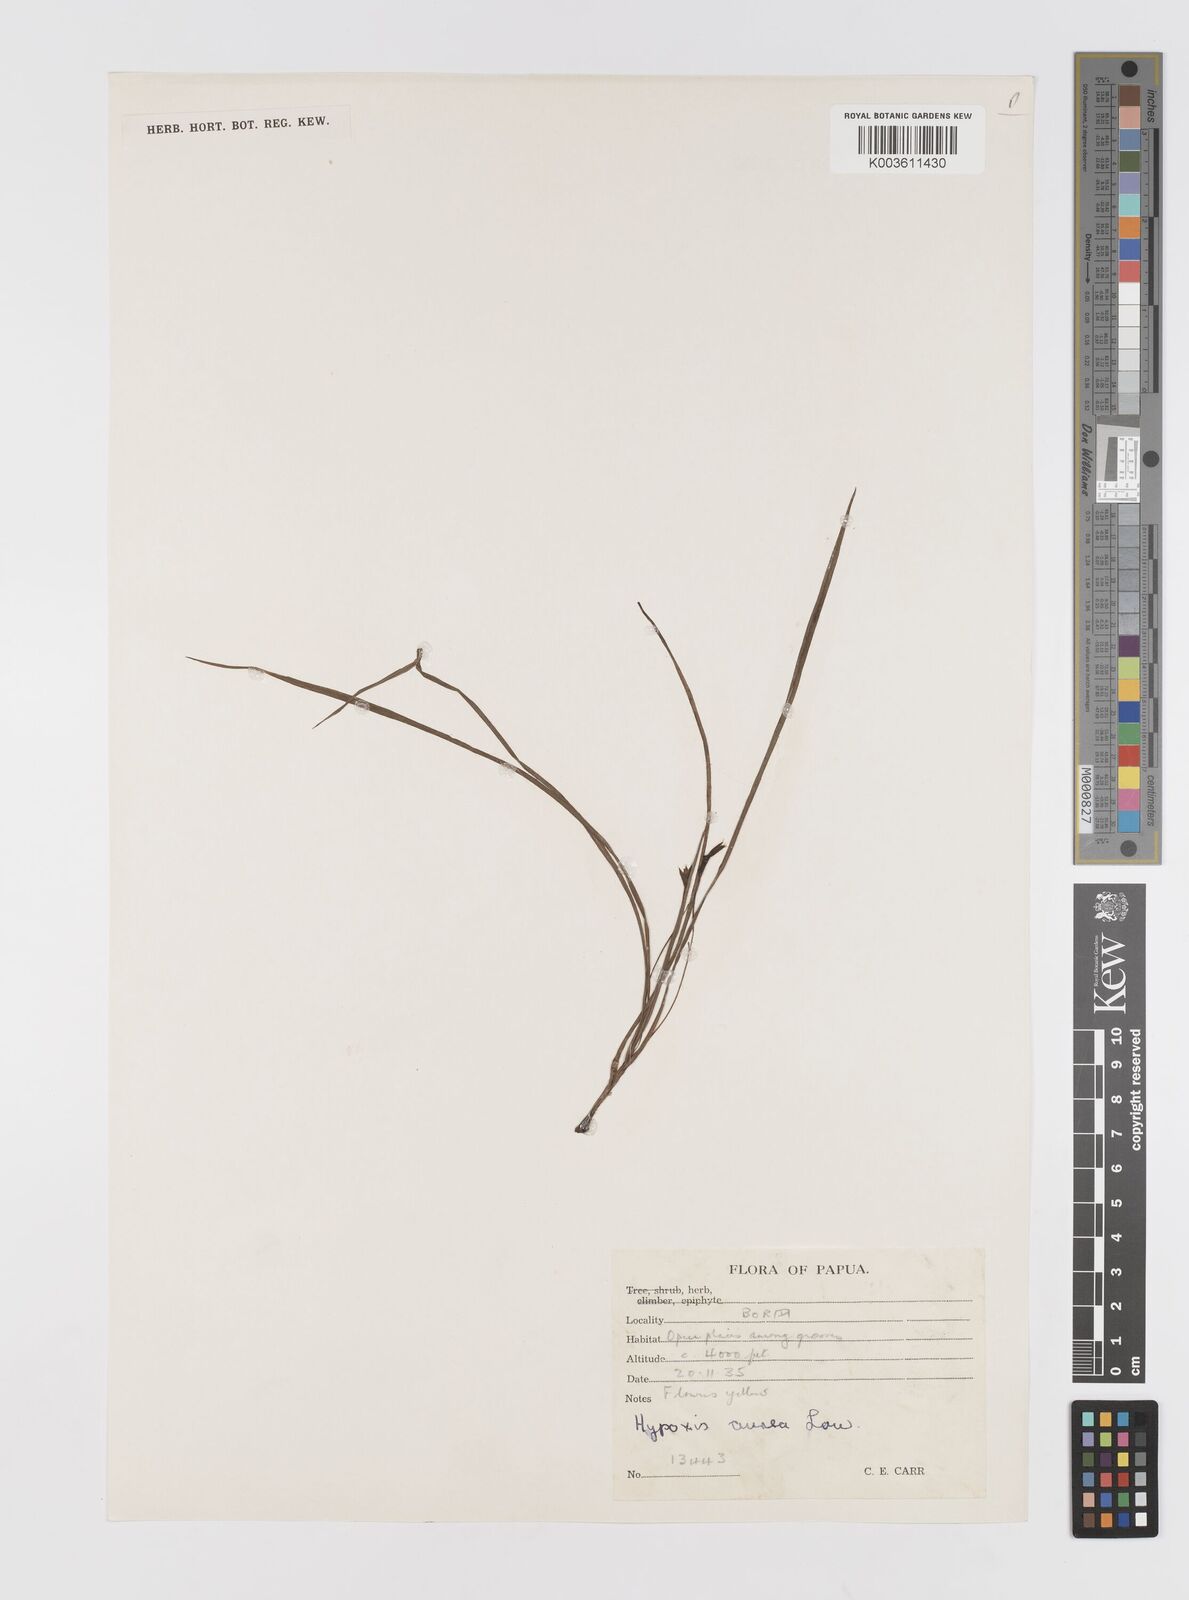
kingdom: Plantae
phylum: Tracheophyta
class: Liliopsida
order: Asparagales
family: Hypoxidaceae
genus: Hypoxis
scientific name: Hypoxis aurea
